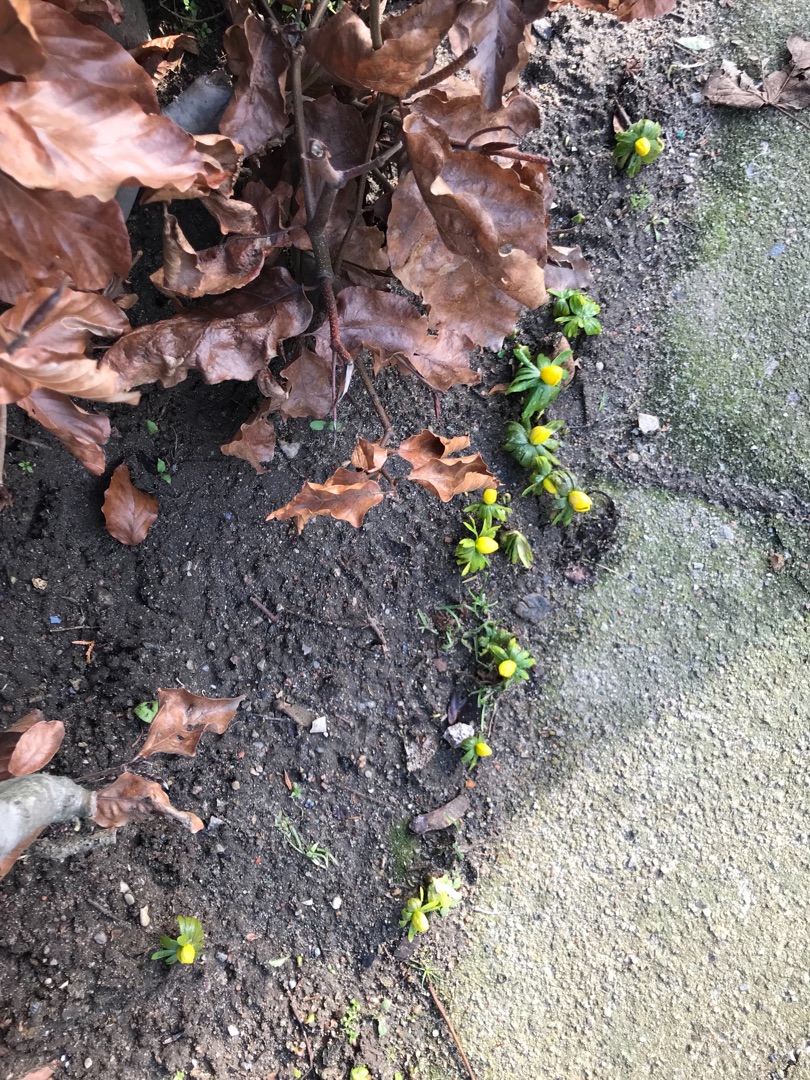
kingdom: Plantae
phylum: Tracheophyta
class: Magnoliopsida
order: Ranunculales
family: Ranunculaceae
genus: Eranthis
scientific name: Eranthis hyemalis
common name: Erantis
